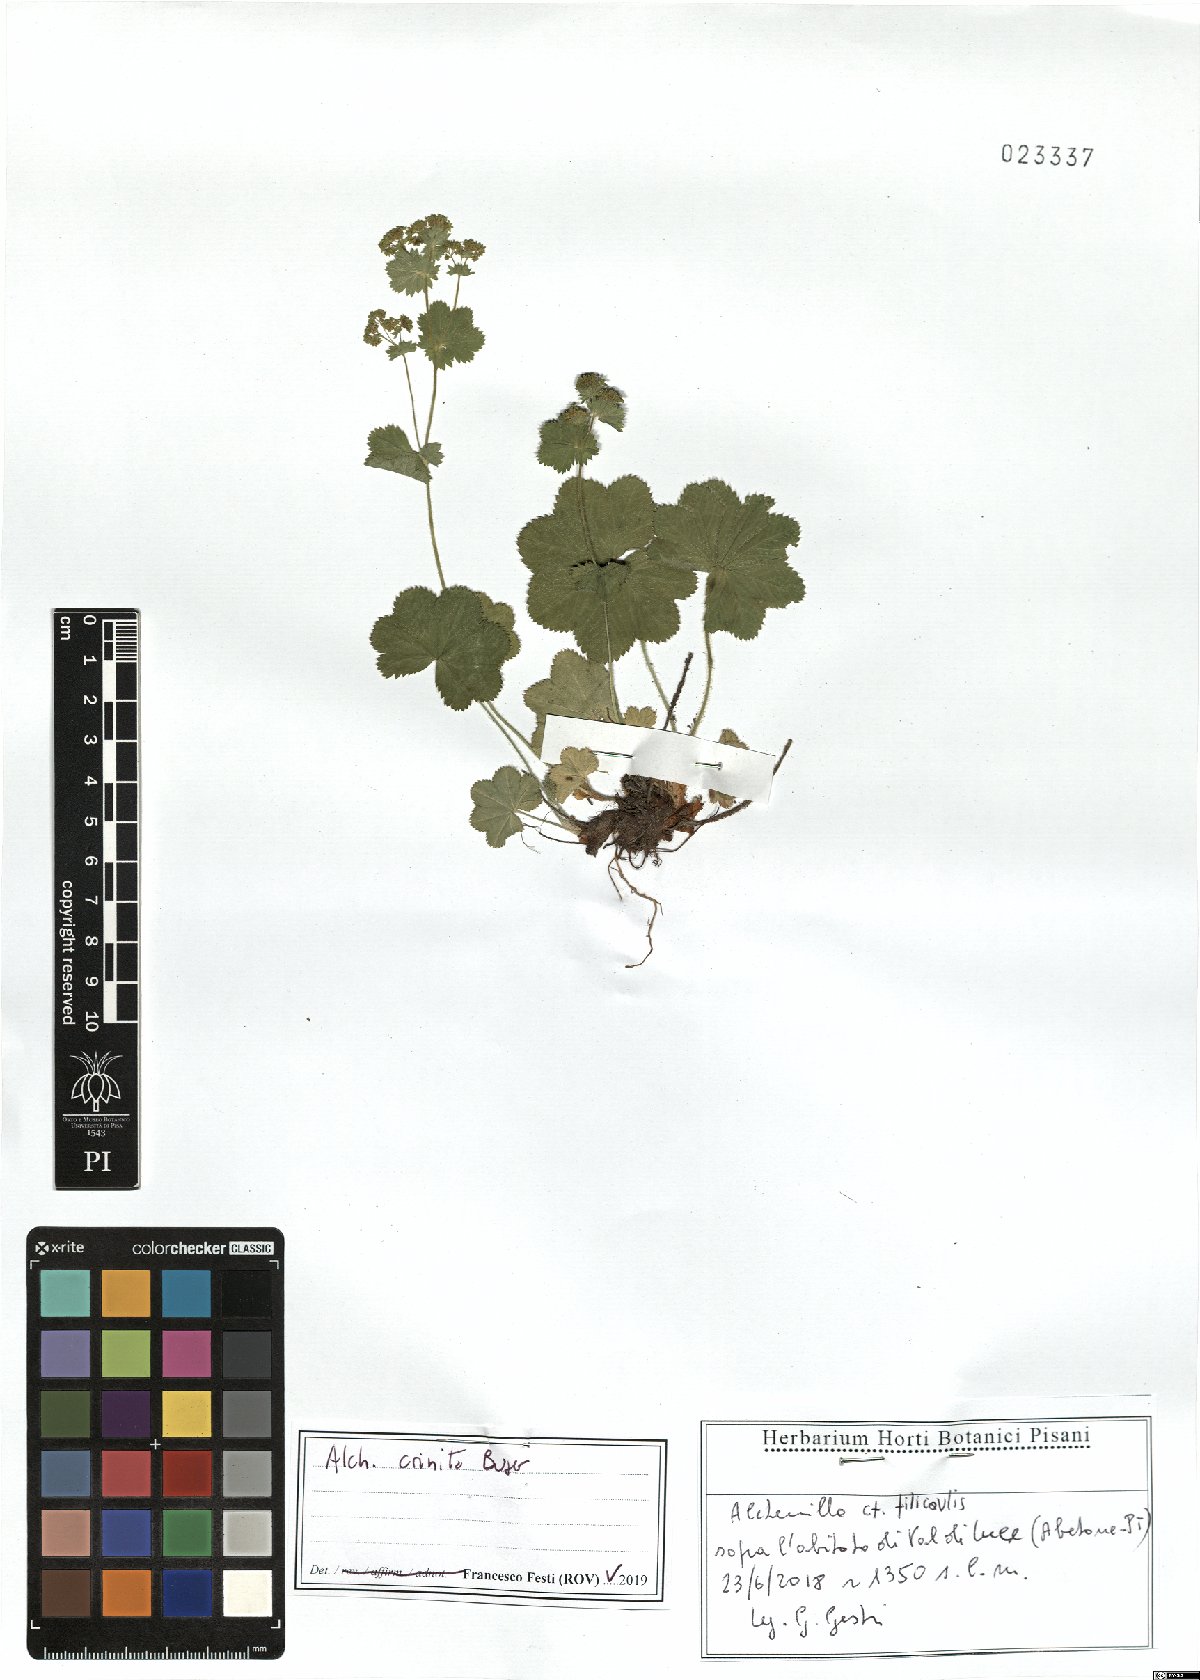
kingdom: Plantae
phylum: Tracheophyta
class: Magnoliopsida
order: Rosales
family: Rosaceae
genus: Alchemilla
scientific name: Alchemilla crinita
